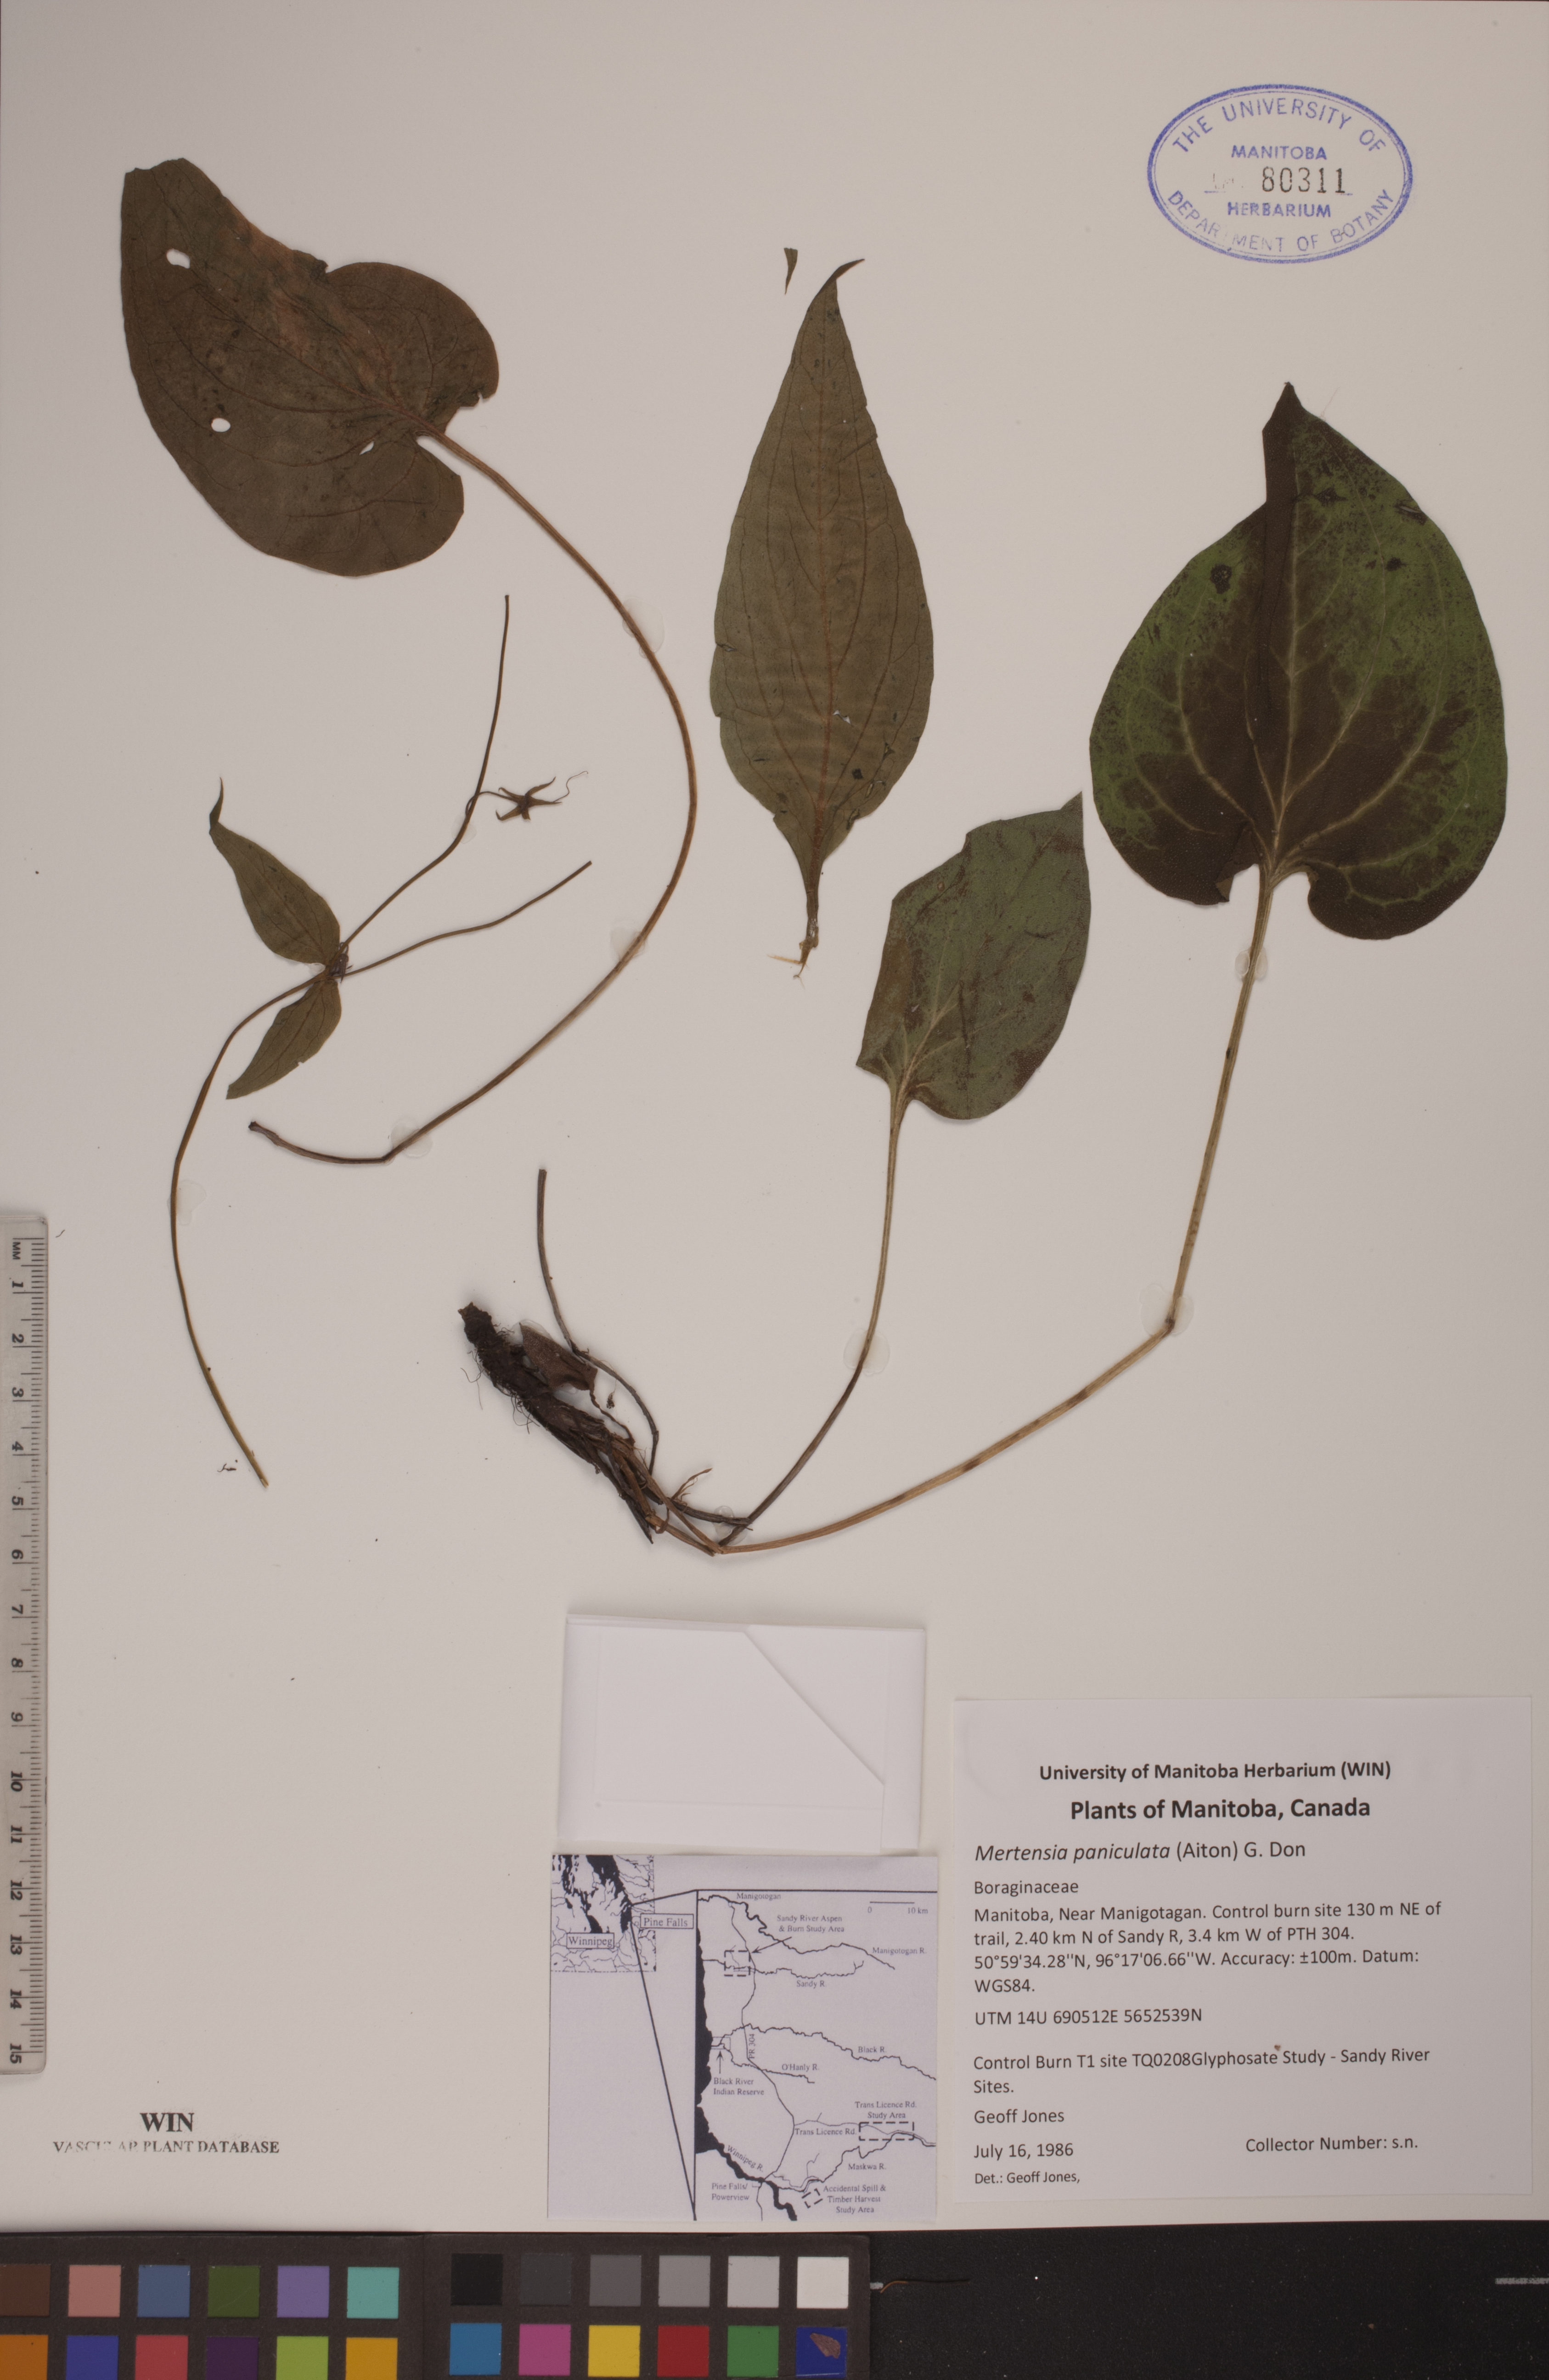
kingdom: Plantae
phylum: Tracheophyta
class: Magnoliopsida
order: Boraginales
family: Boraginaceae
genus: Mertensia
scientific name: Mertensia paniculata
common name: Panicled bluebells
